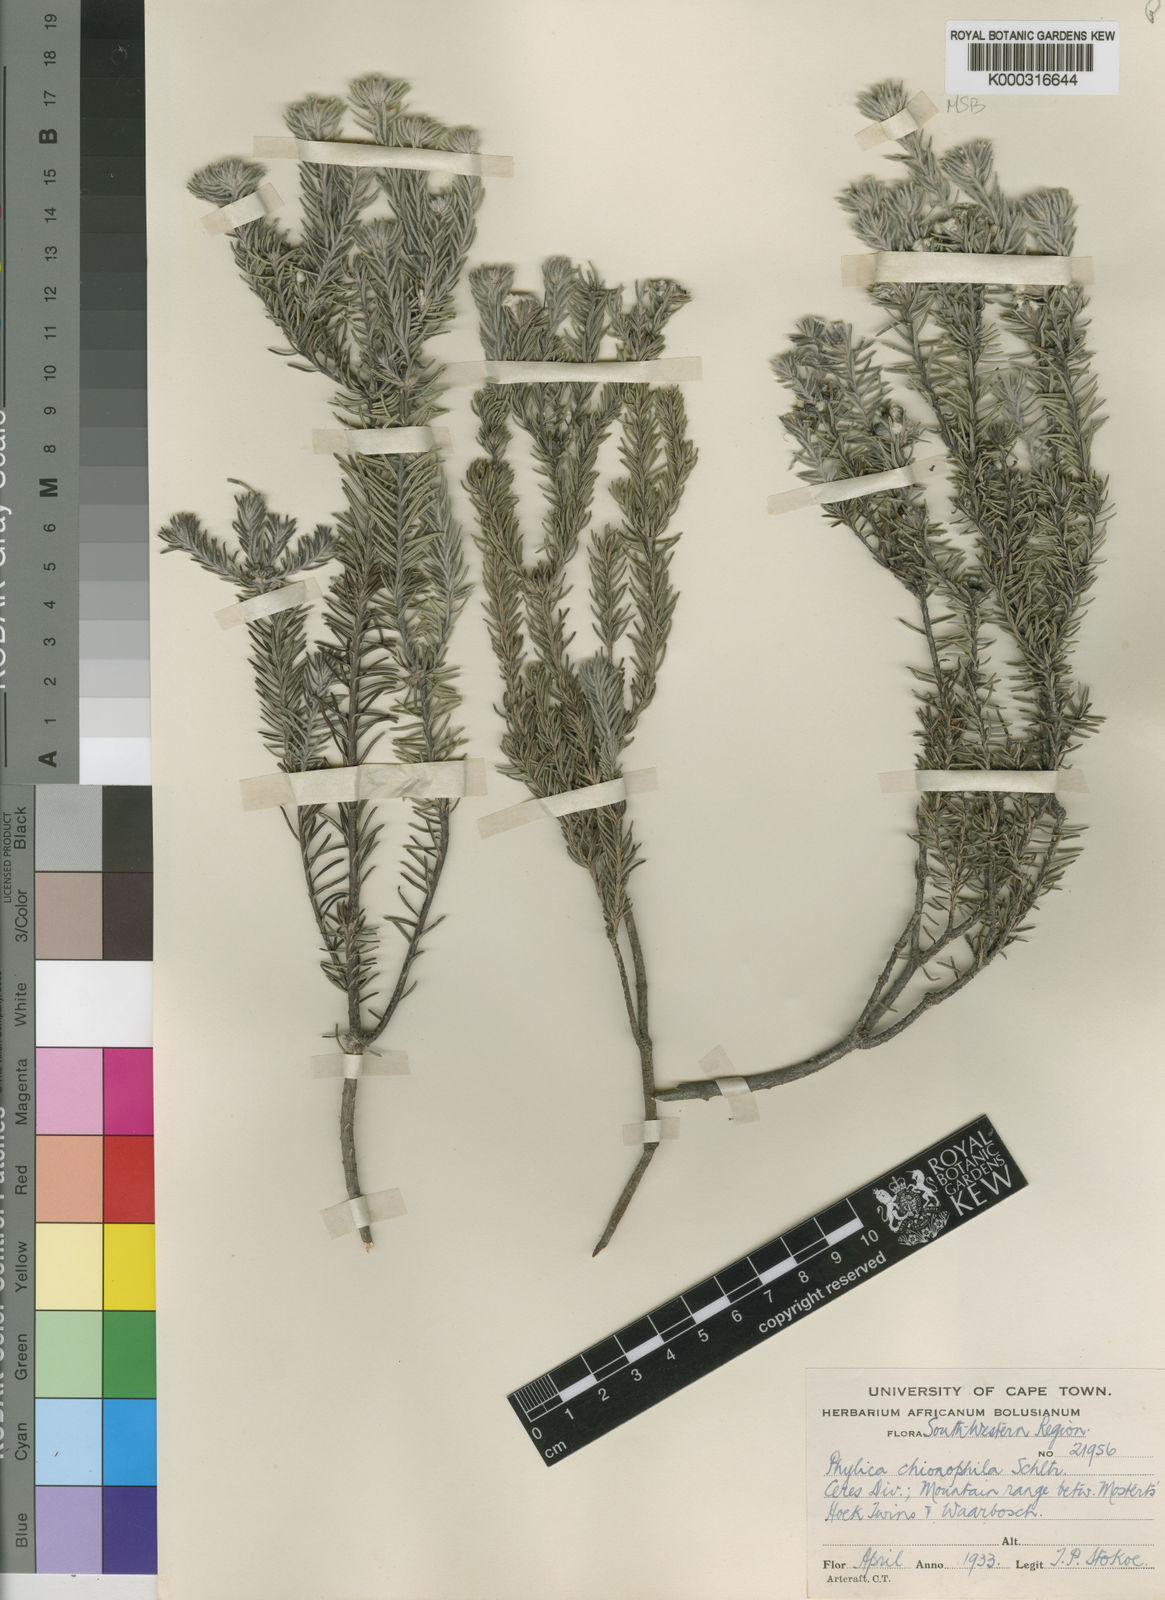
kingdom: Plantae
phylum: Tracheophyta
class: Magnoliopsida
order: Rosales
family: Rhamnaceae
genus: Phylica
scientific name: Phylica chionocephala
